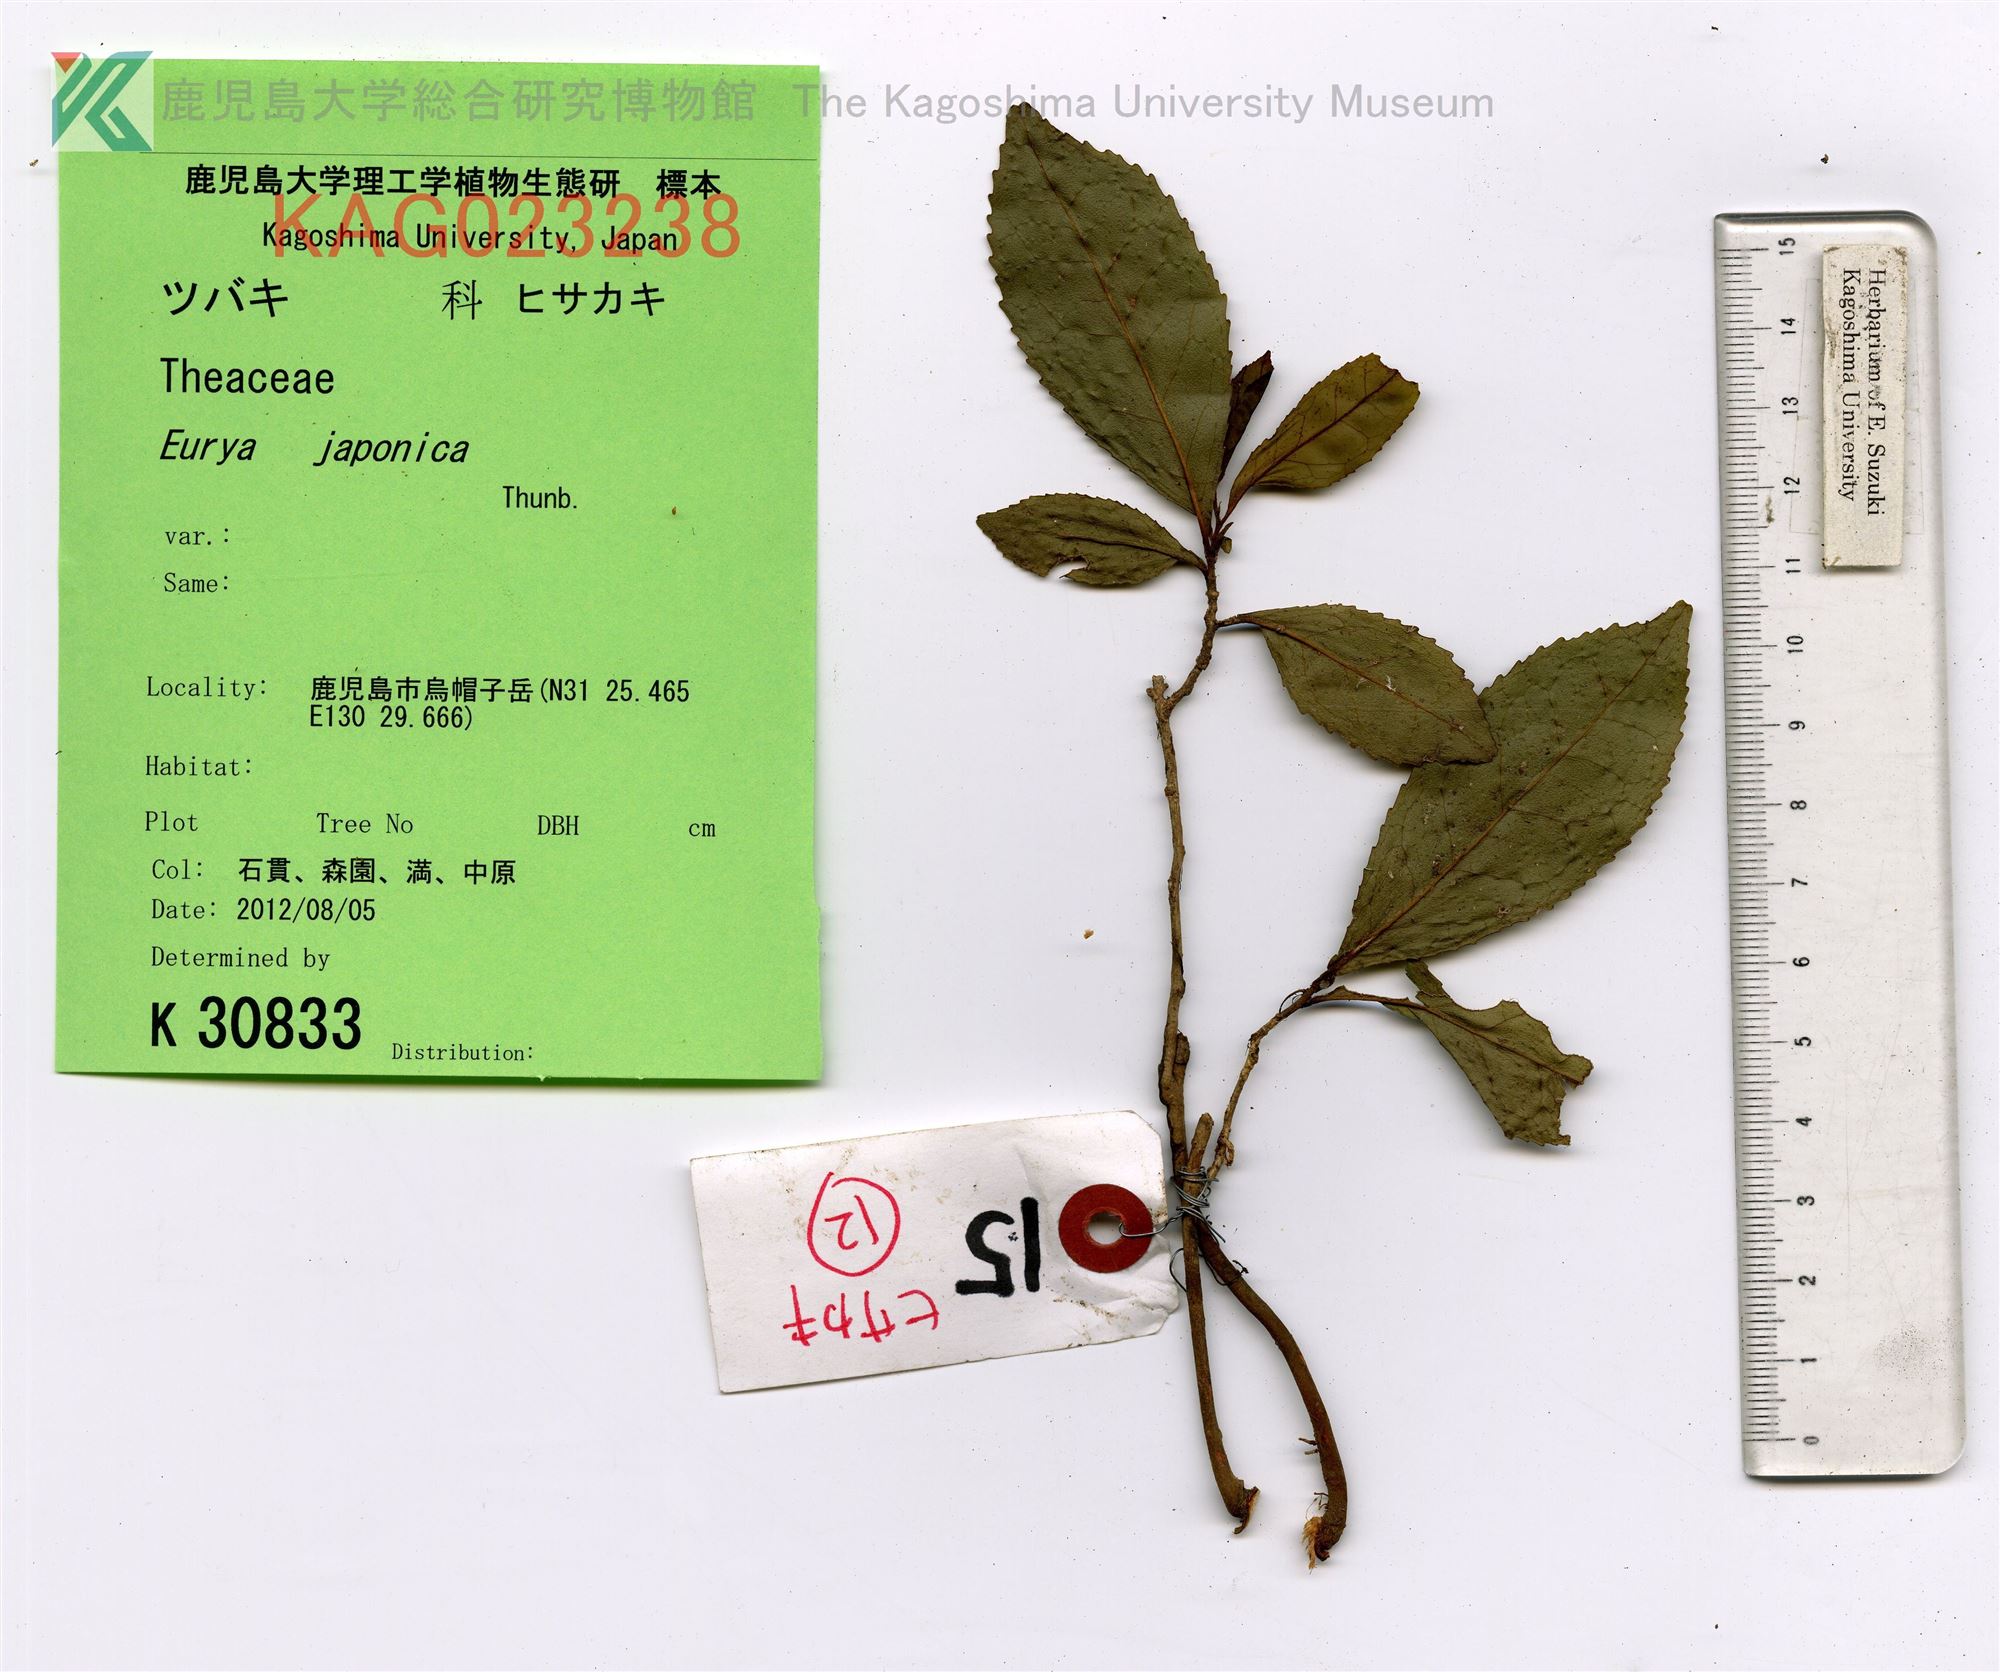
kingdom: Plantae
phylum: Tracheophyta
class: Magnoliopsida
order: Ericales
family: Pentaphylacaceae
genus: Eurya
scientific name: Eurya japonica
